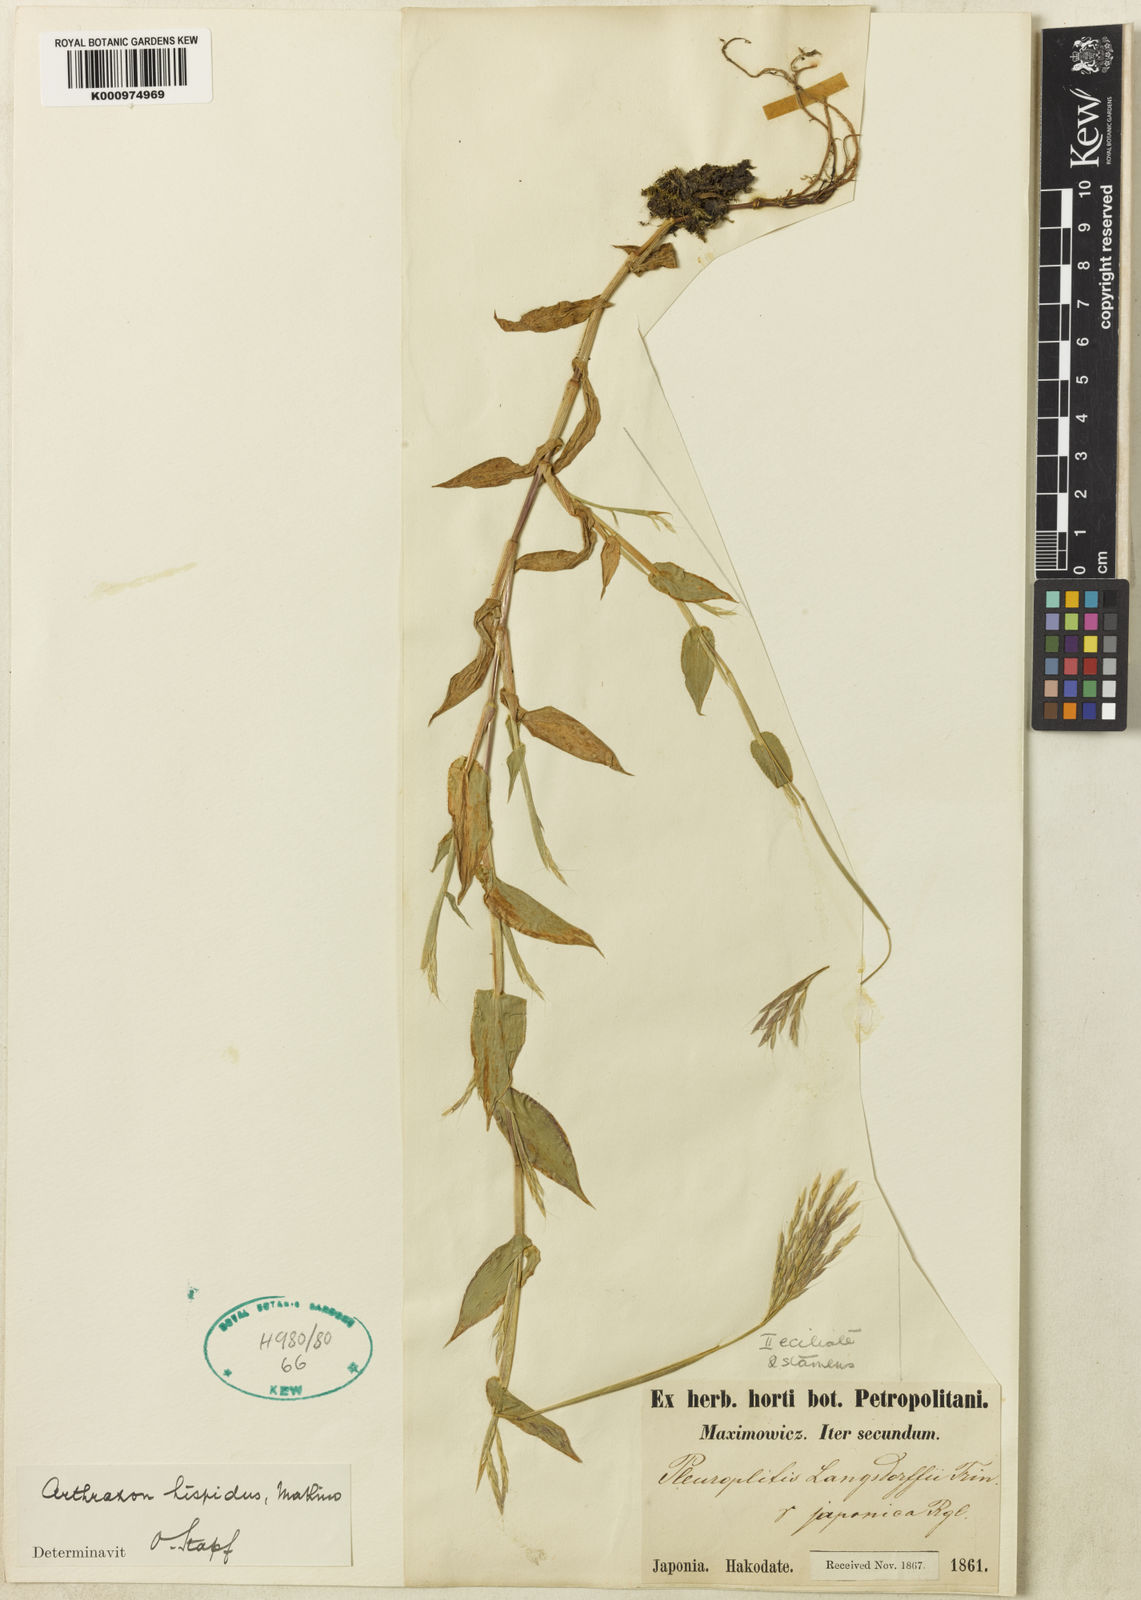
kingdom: Plantae
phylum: Tracheophyta
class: Liliopsida
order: Poales
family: Poaceae
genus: Arthraxon
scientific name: Arthraxon hispidus
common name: Small carpgrass
